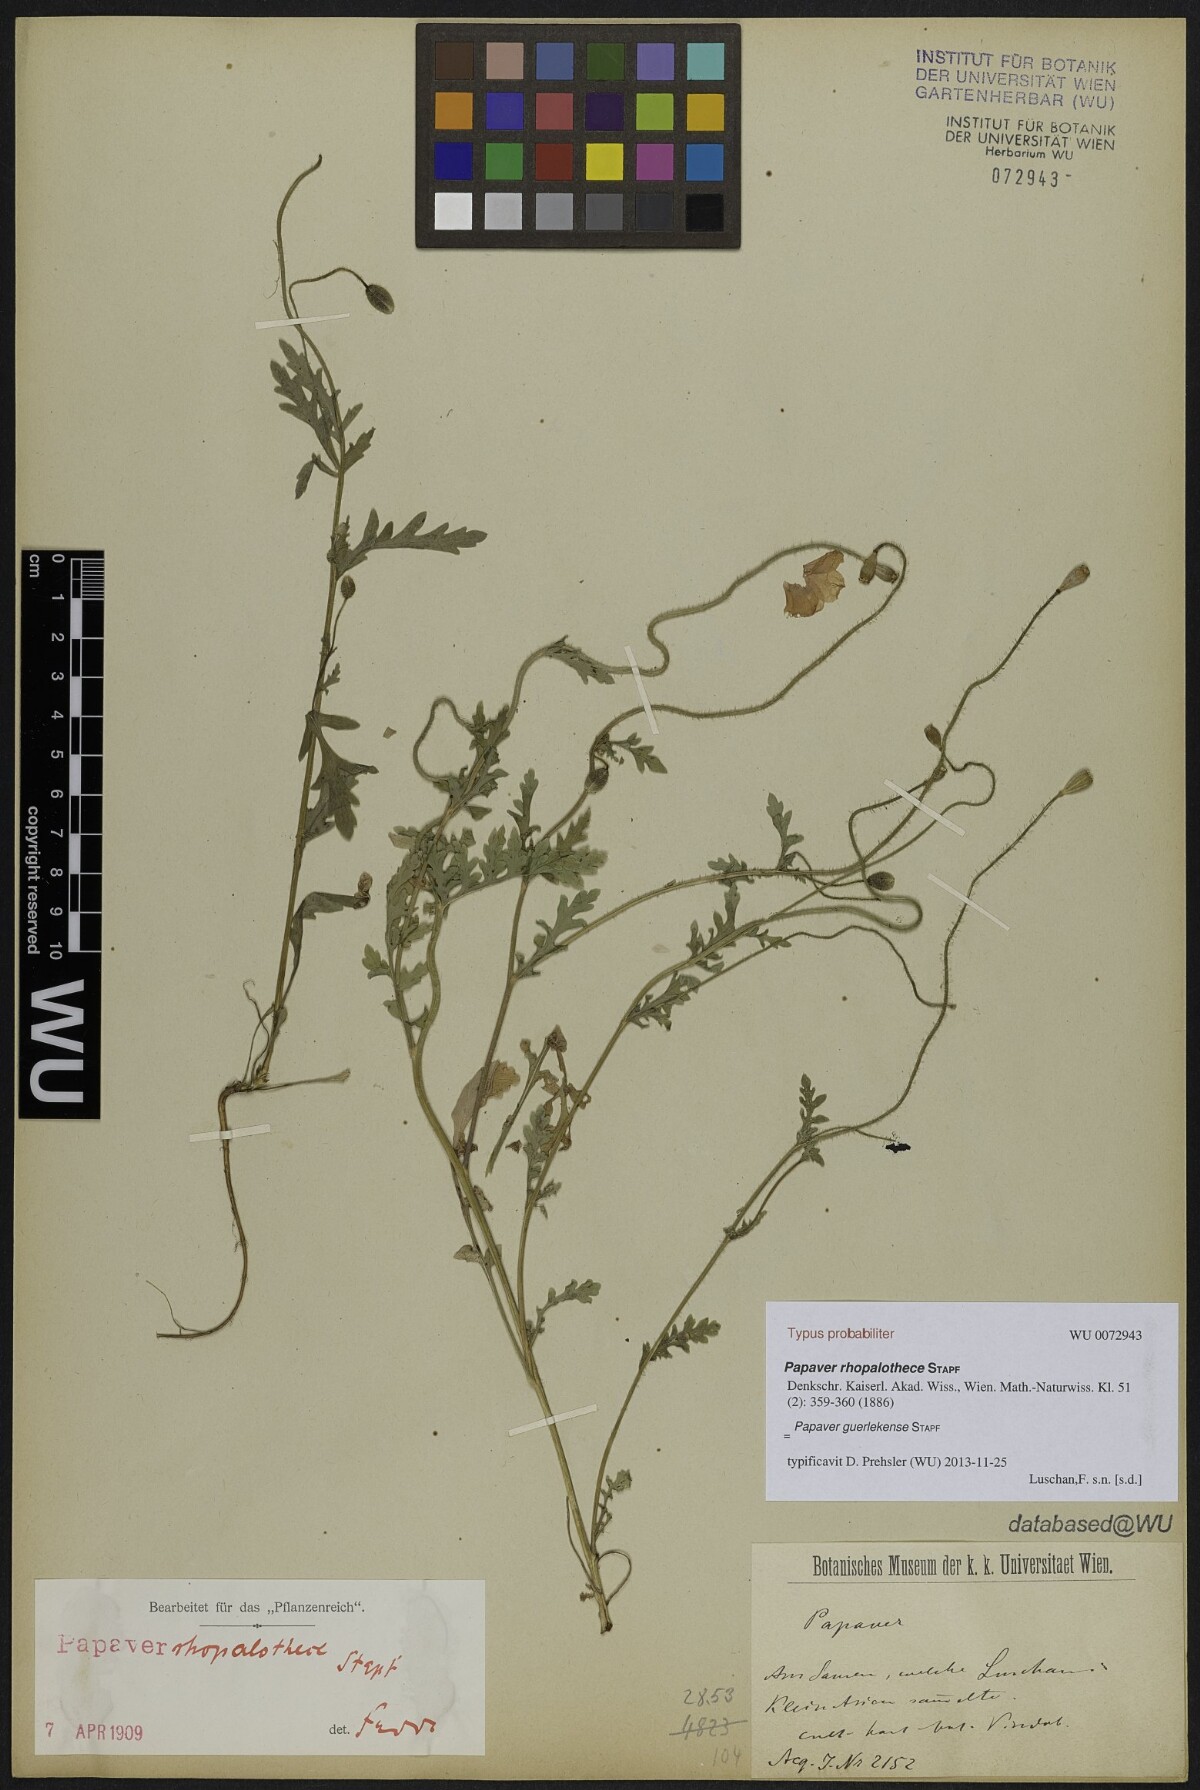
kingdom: Plantae
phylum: Tracheophyta
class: Magnoliopsida
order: Ranunculales
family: Papaveraceae
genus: Papaver
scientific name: Papaver guerlekense
